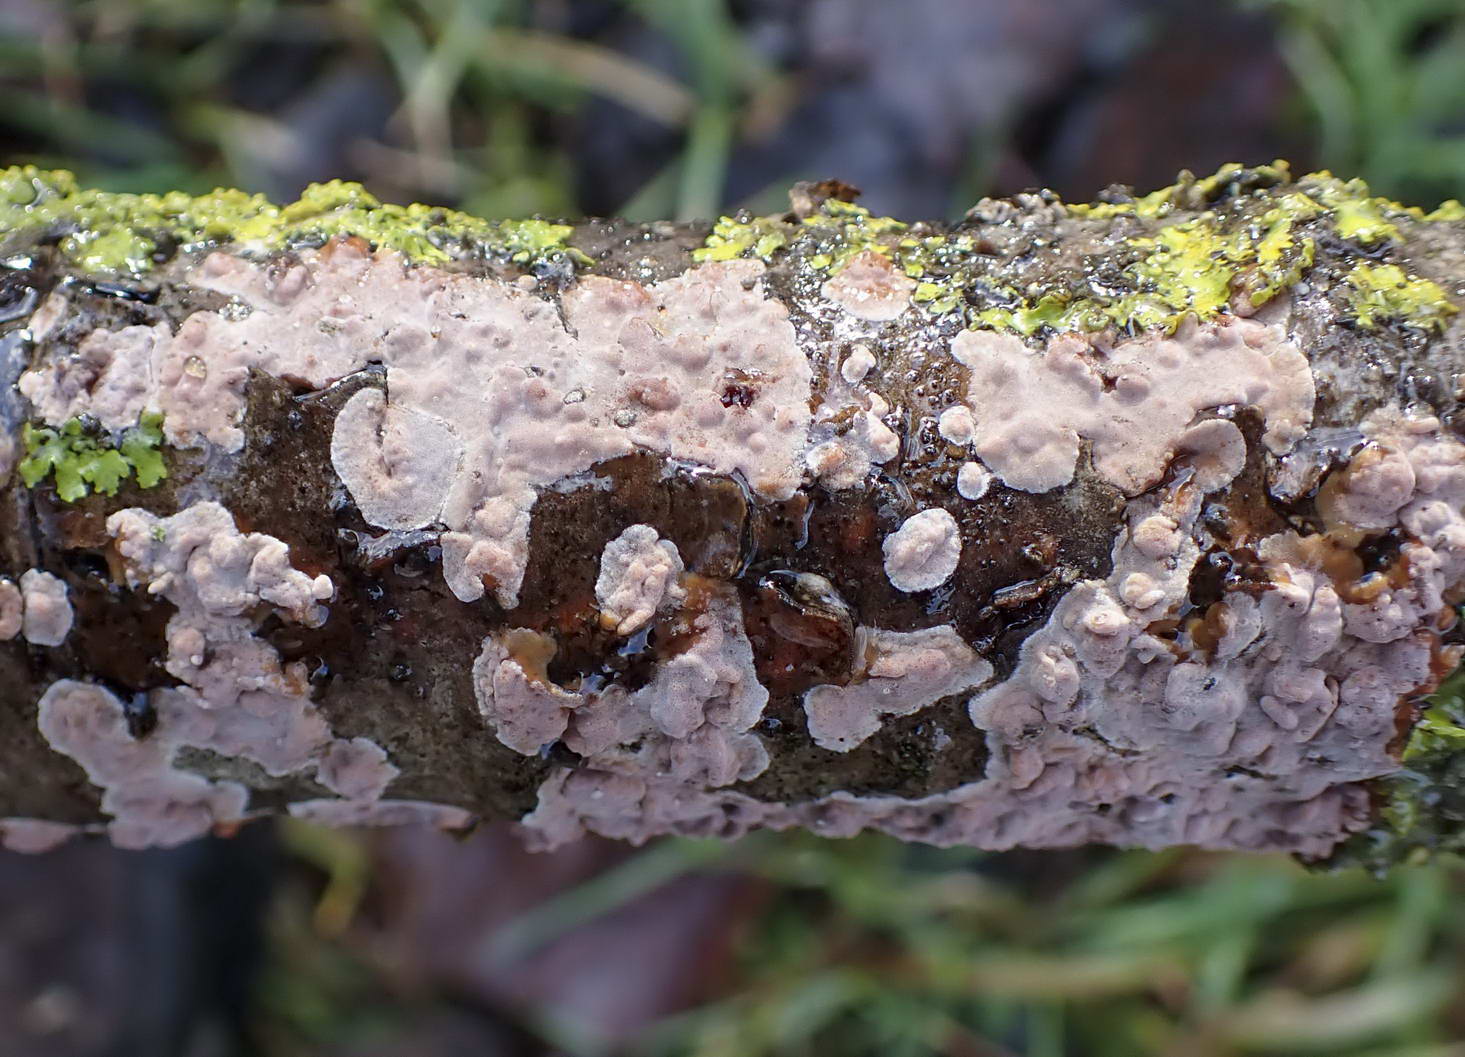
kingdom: Fungi
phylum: Basidiomycota
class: Agaricomycetes
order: Russulales
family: Peniophoraceae
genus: Peniophora
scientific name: Peniophora polygonia
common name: polygon-voksskind
